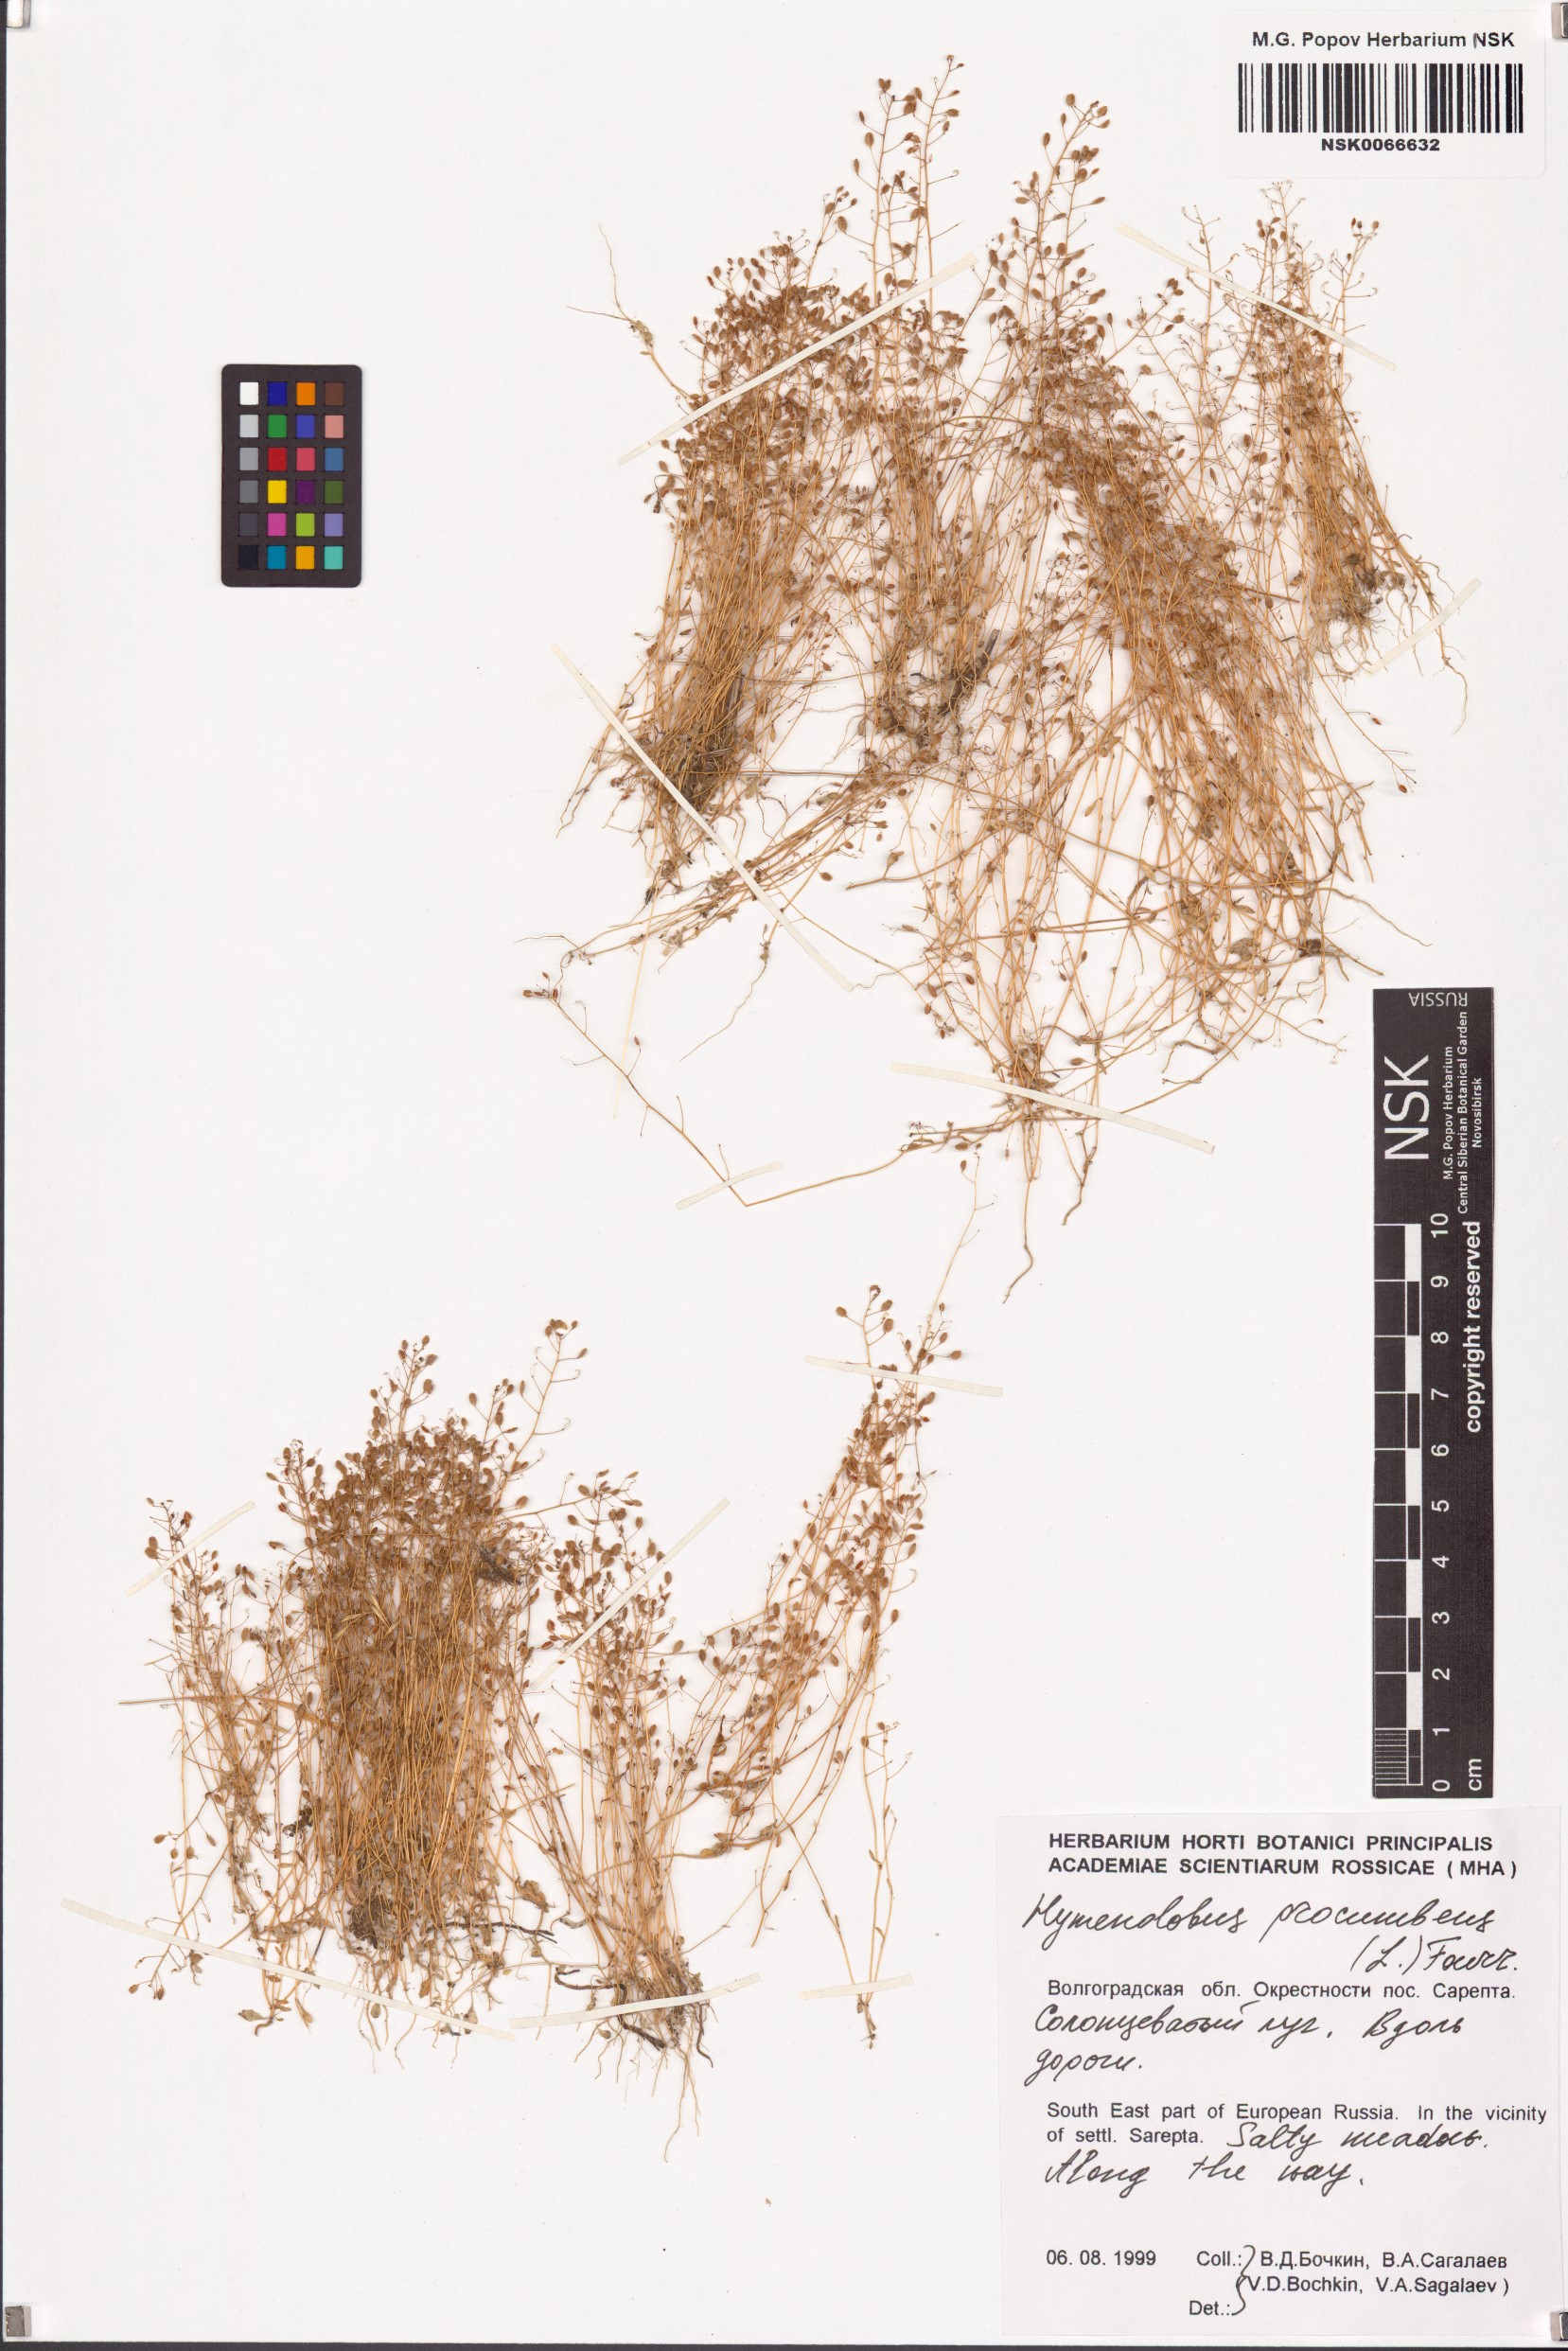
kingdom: Plantae
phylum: Tracheophyta
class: Magnoliopsida
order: Brassicales
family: Brassicaceae
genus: Hornungia
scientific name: Hornungia procumbens
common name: Oval purse
